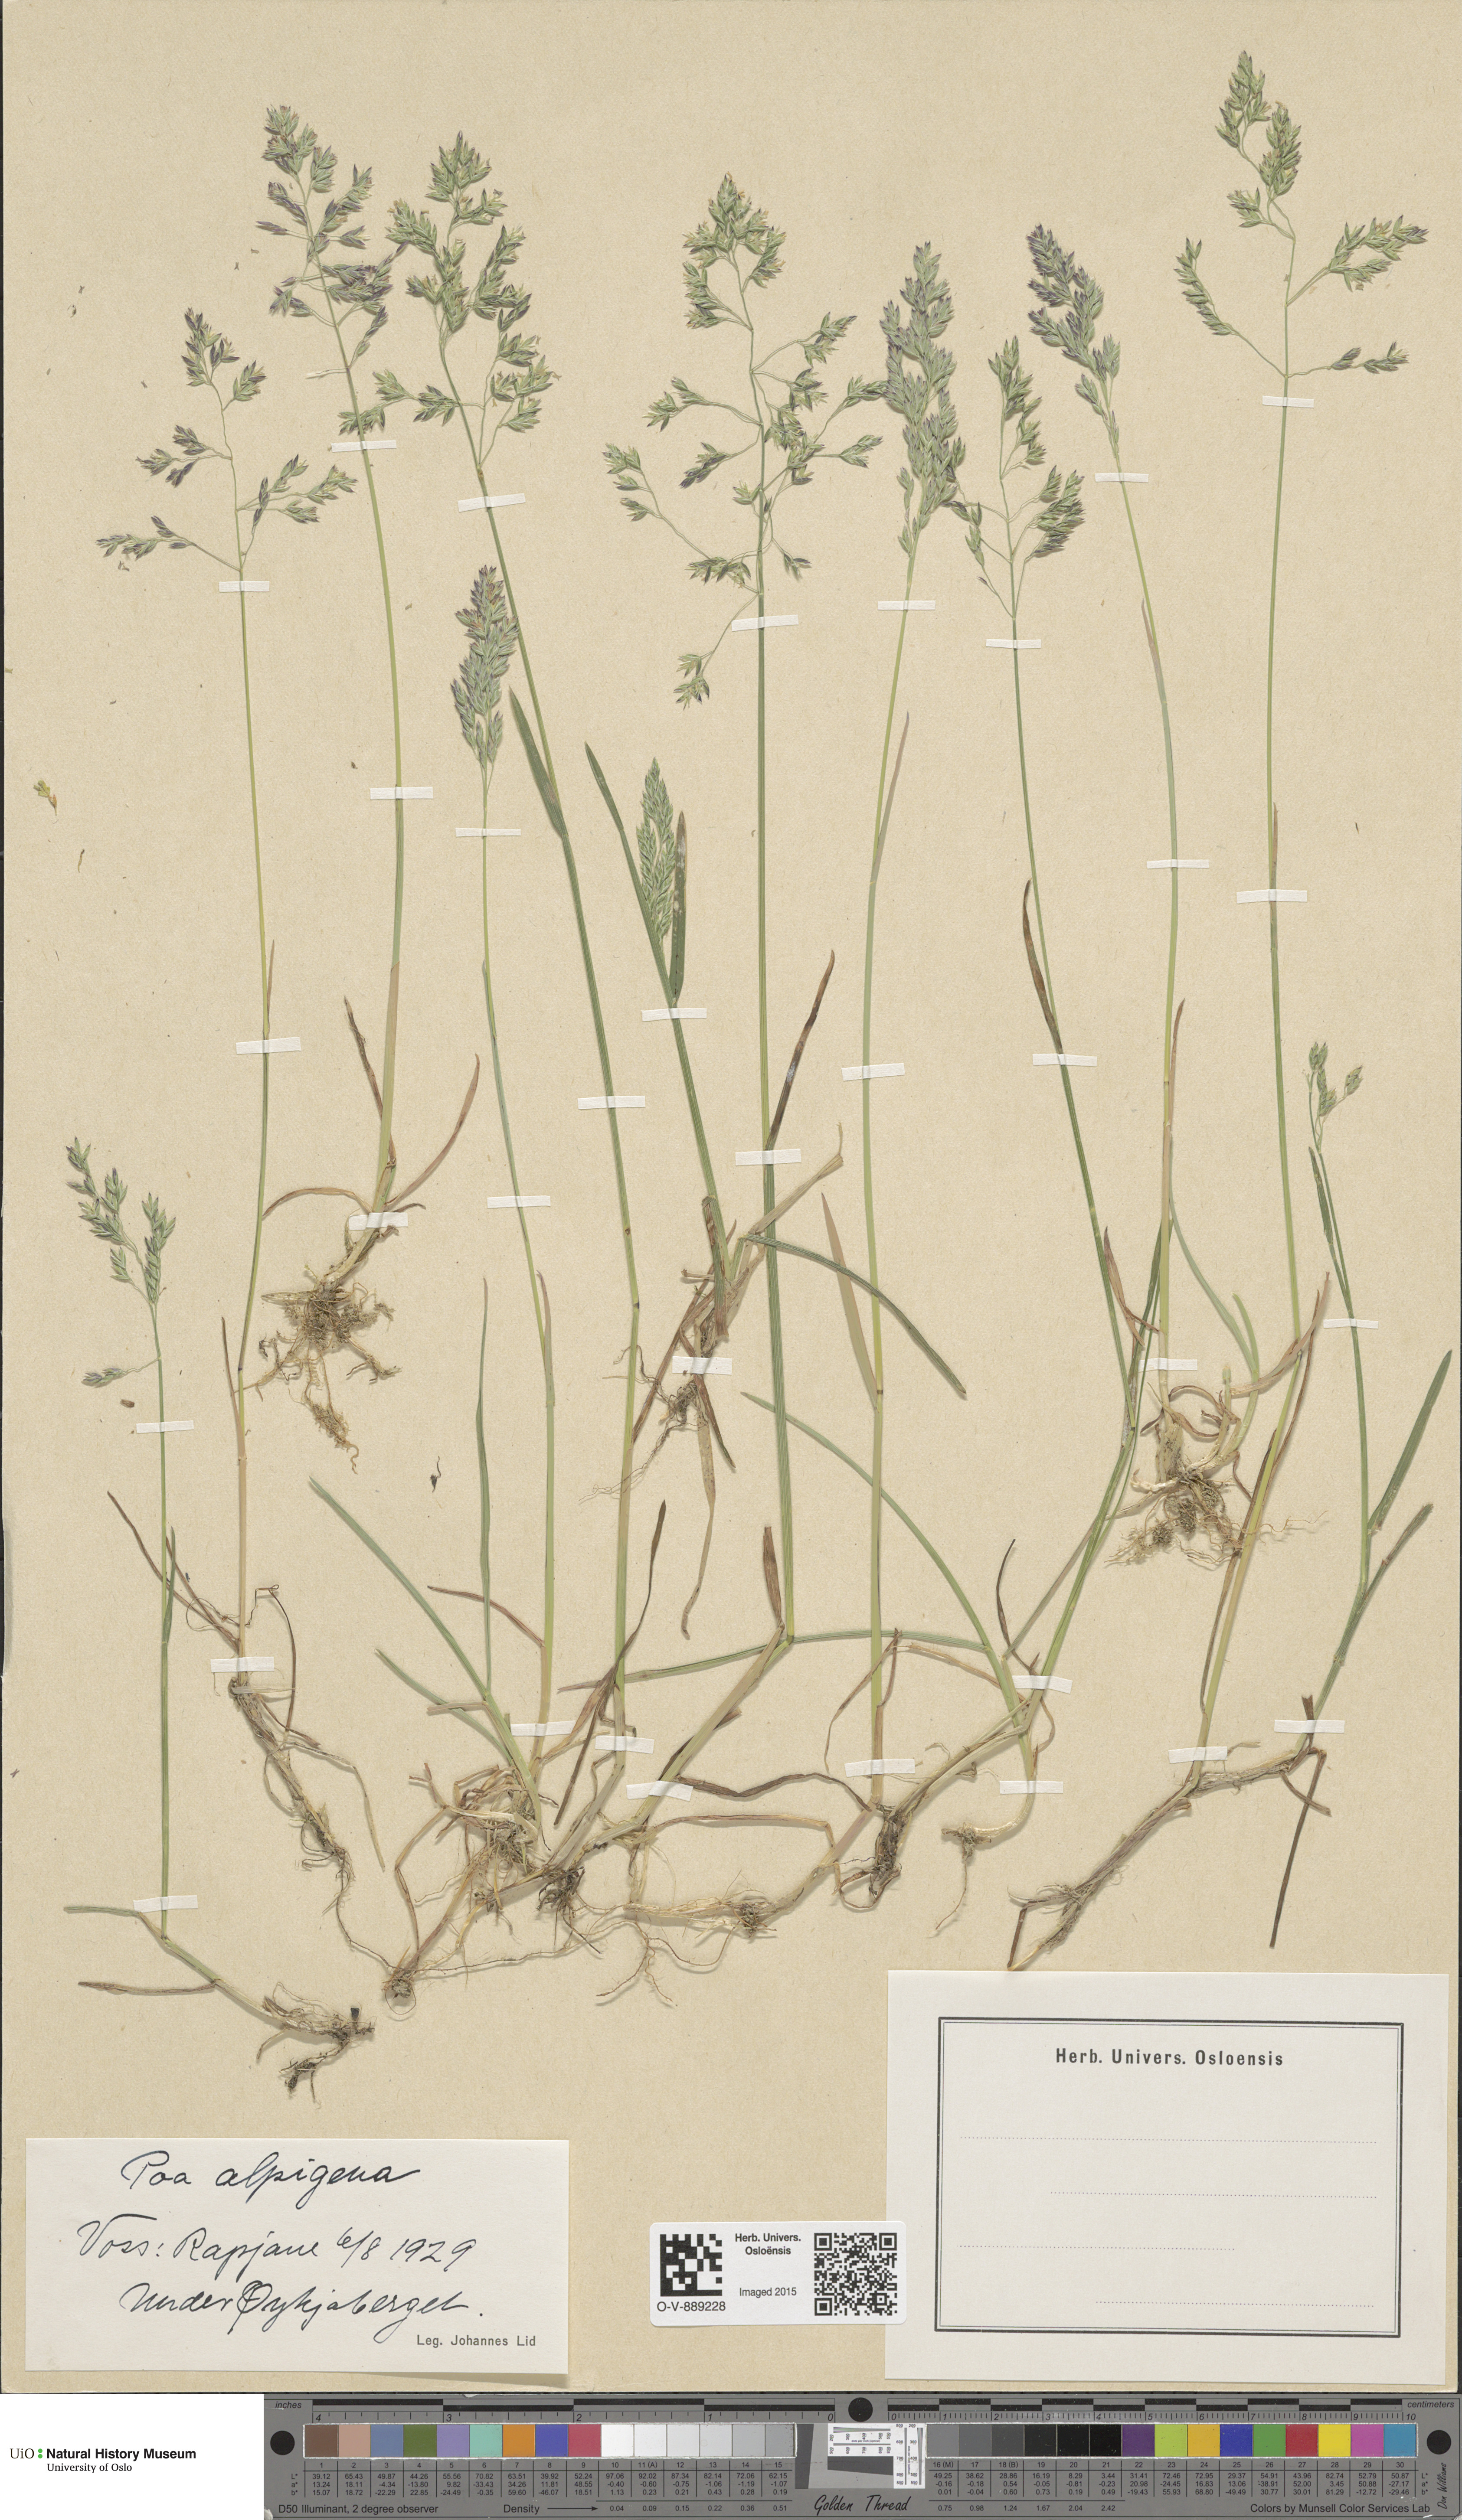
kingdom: Plantae
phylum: Tracheophyta
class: Liliopsida
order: Poales
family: Poaceae
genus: Poa
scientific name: Poa alpigena
